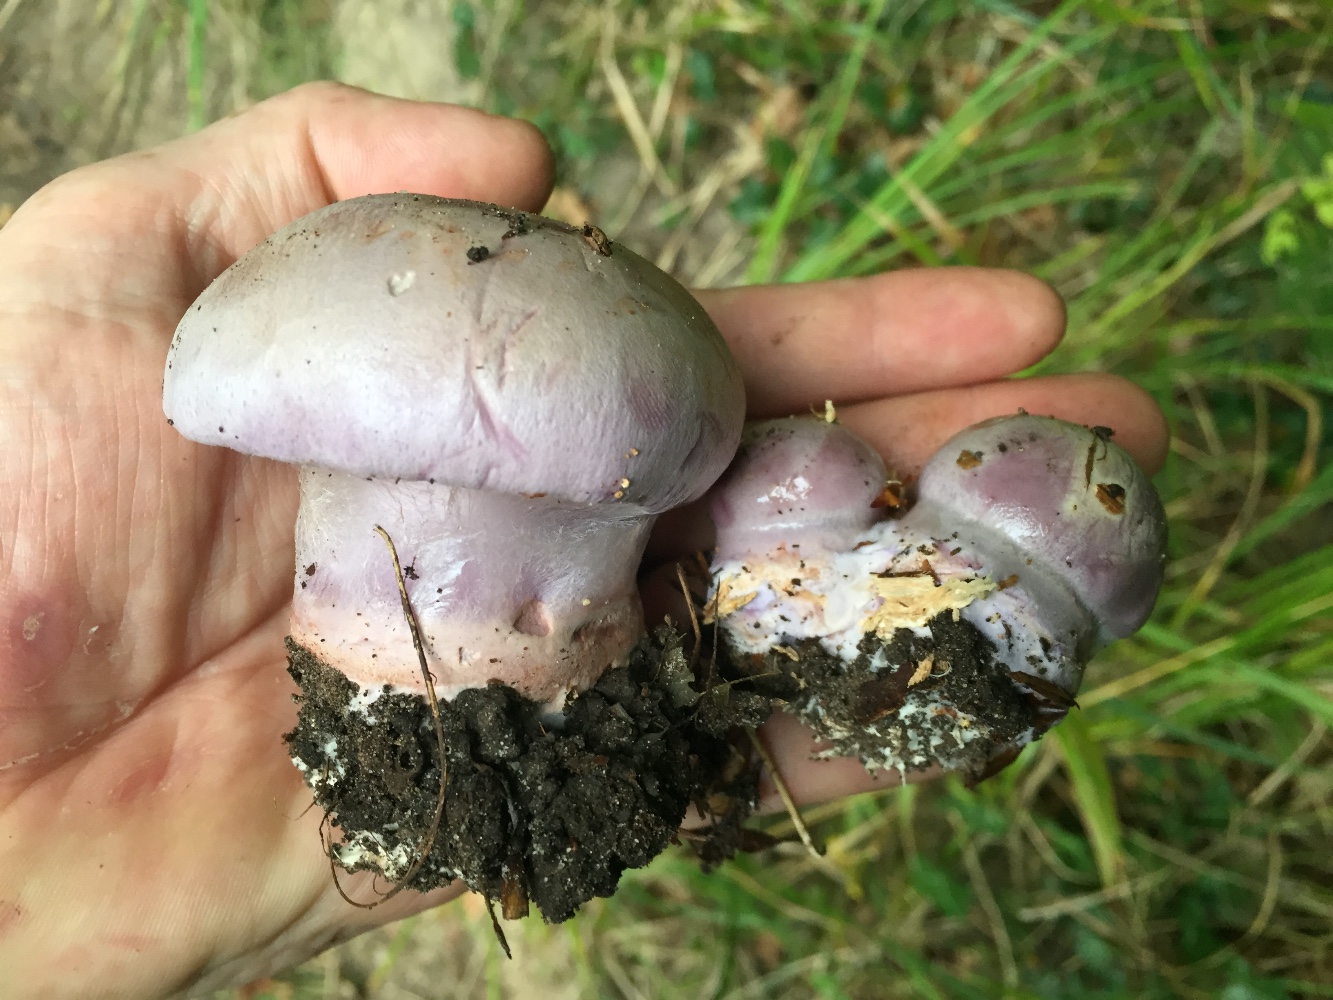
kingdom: Fungi
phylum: Basidiomycota
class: Agaricomycetes
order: Agaricales
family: Cortinariaceae
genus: Calonarius
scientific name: Calonarius rufo-olivaceus
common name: firefarvet slørhat
